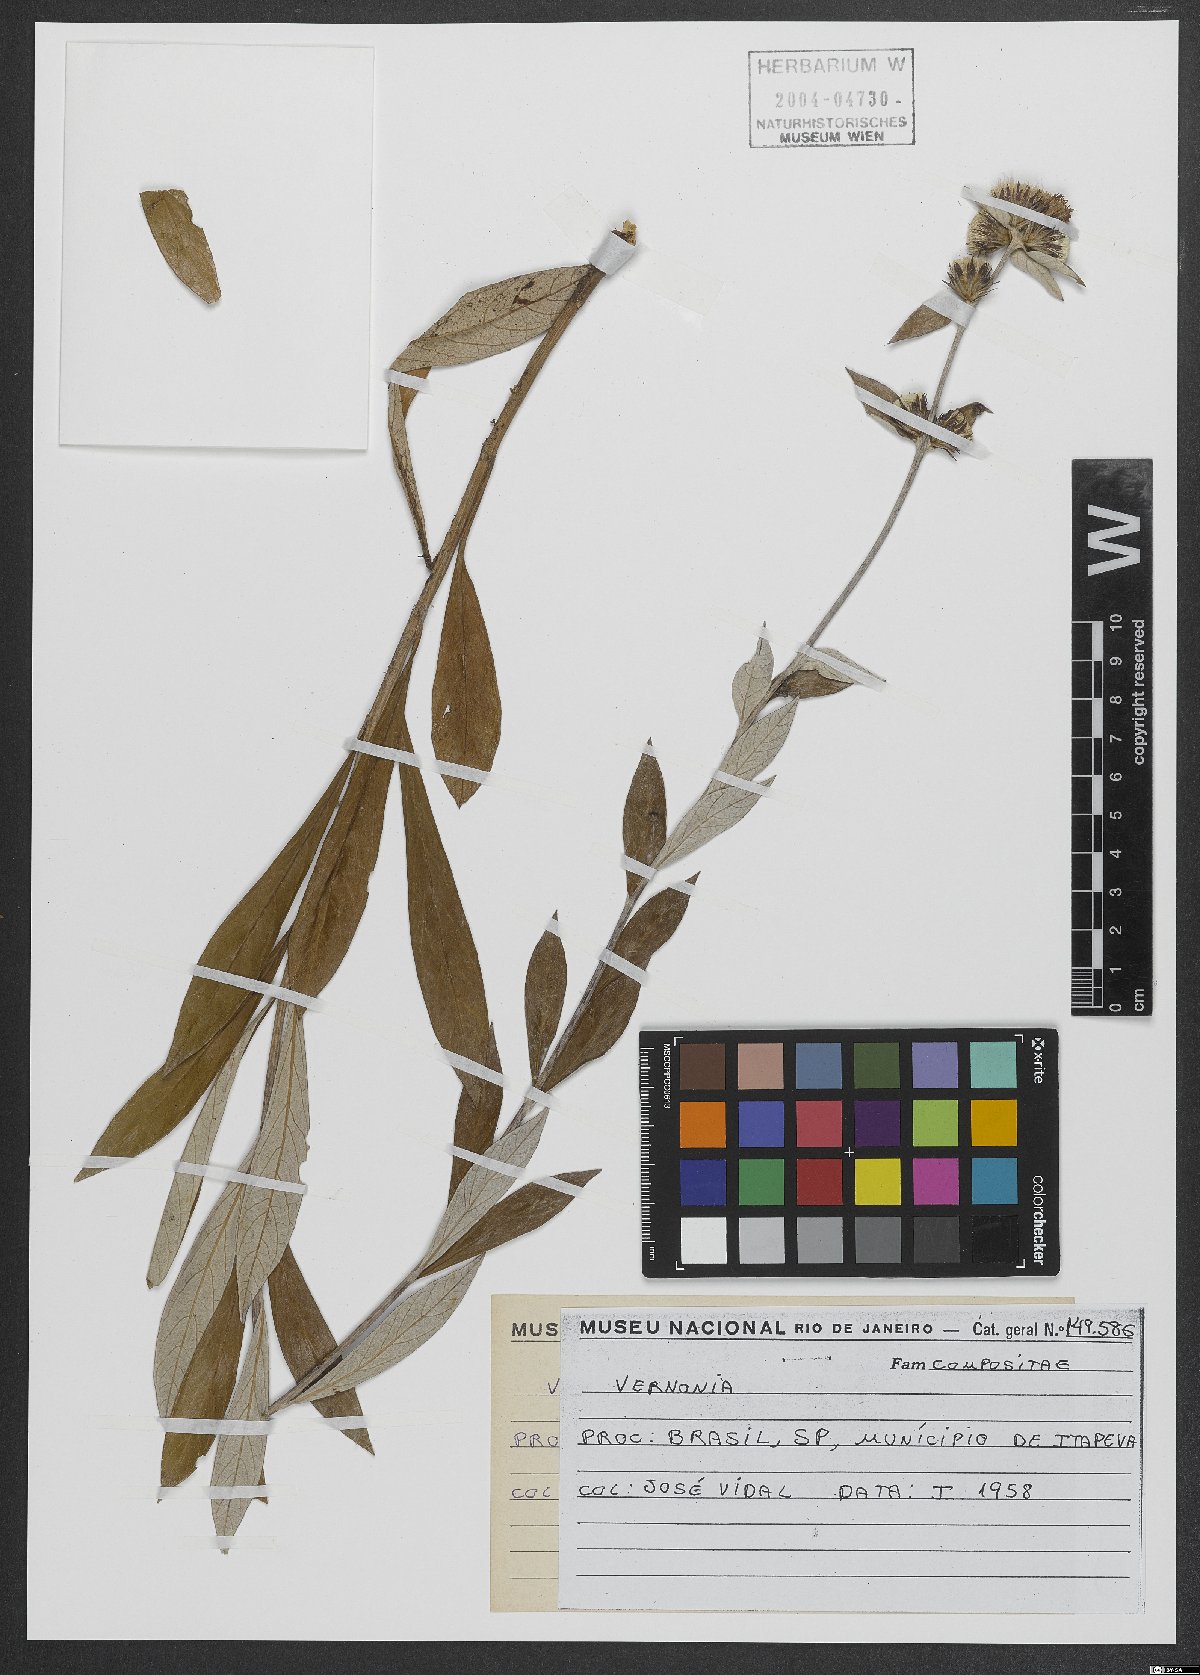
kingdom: Plantae
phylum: Tracheophyta
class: Magnoliopsida
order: Asterales
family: Asteraceae
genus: Vernonia
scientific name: Vernonia
